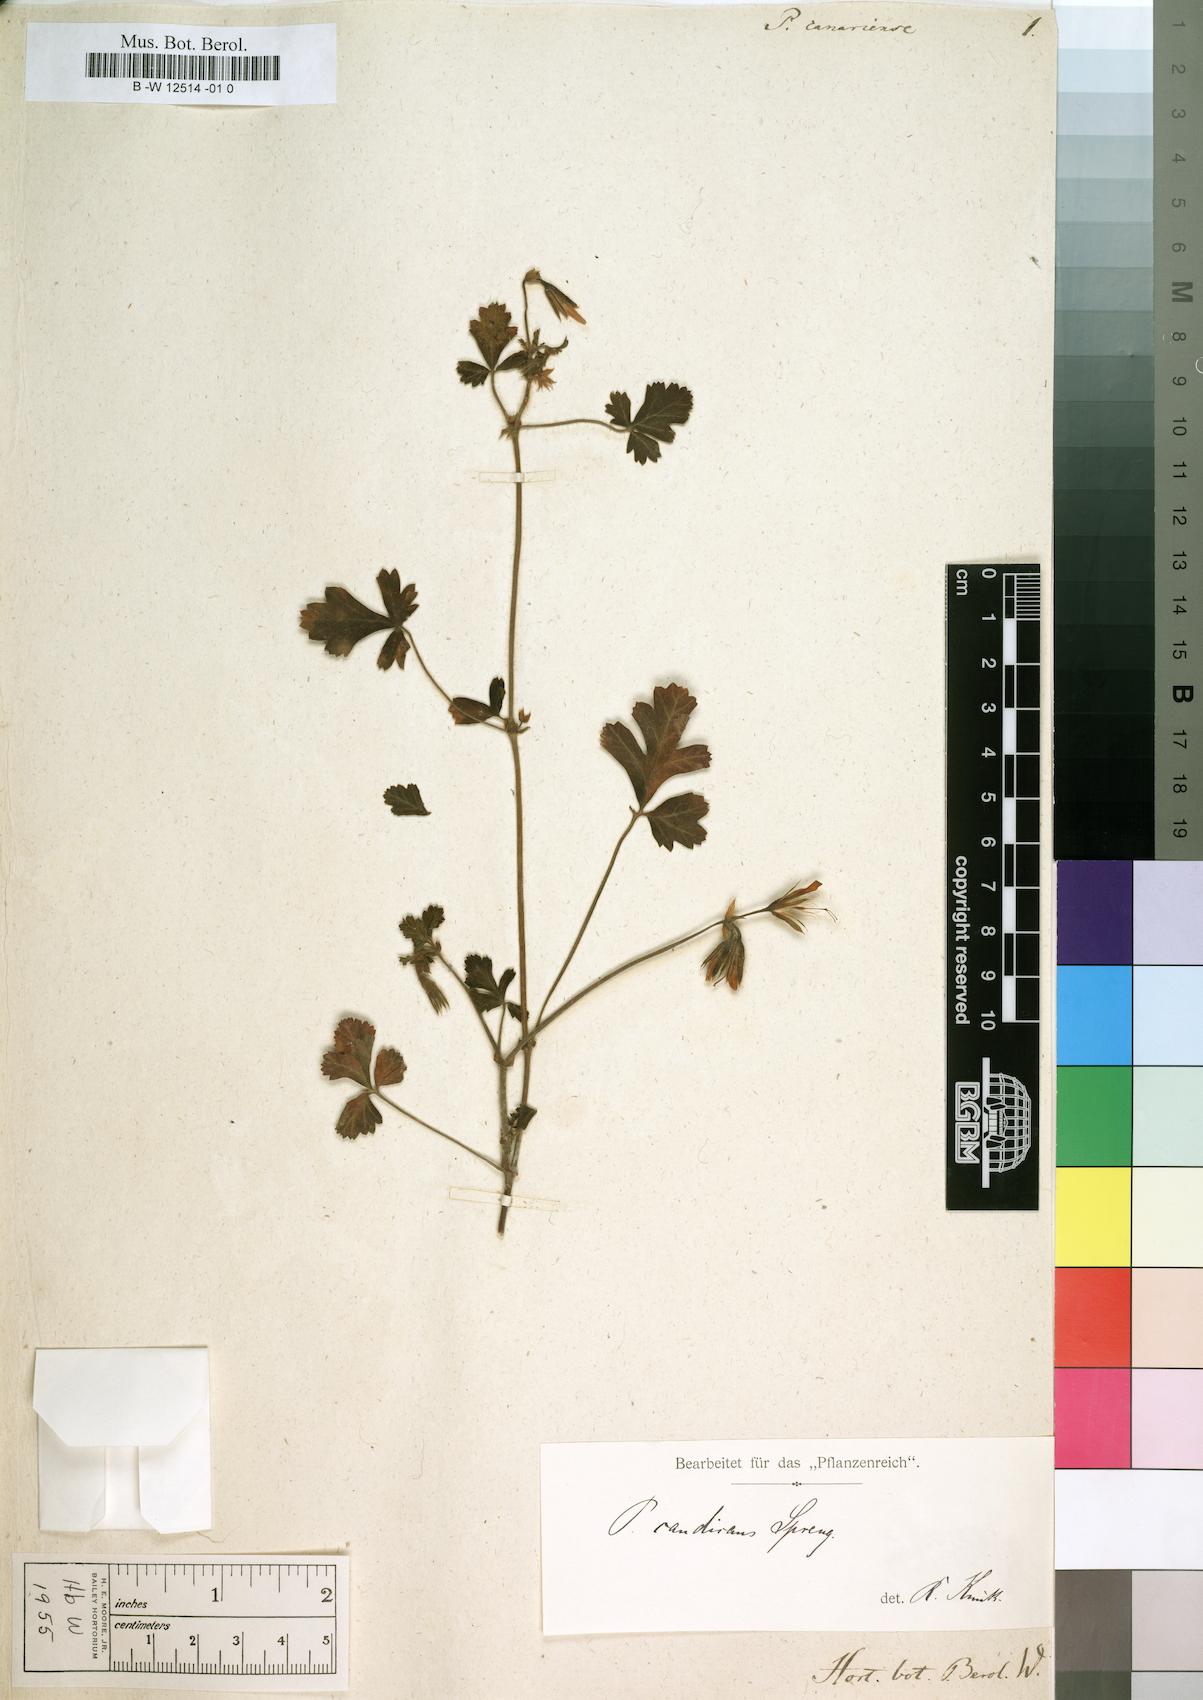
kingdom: Plantae
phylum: Tracheophyta
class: Magnoliopsida
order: Geraniales
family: Geraniaceae
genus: Pelargonium
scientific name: Pelargonium candicans
